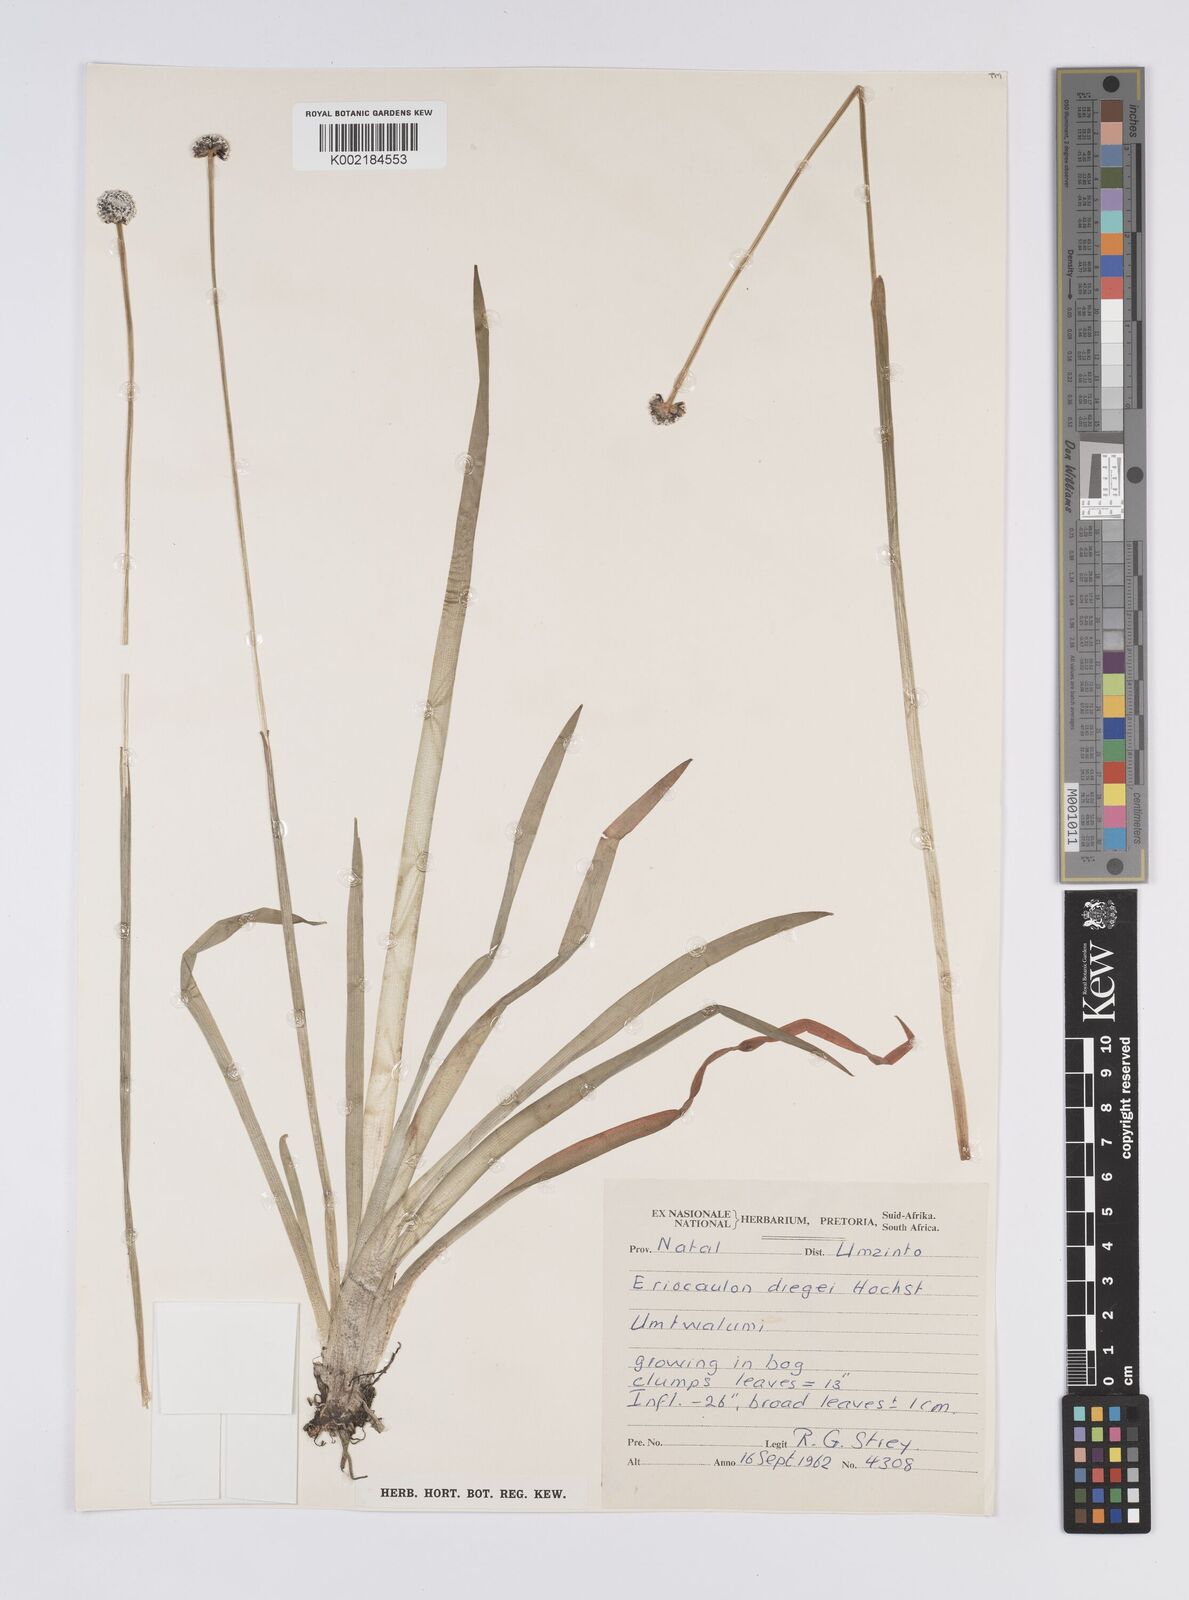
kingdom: Plantae
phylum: Tracheophyta
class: Liliopsida
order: Poales
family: Eriocaulaceae
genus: Eriocaulon
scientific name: Eriocaulon dregei
